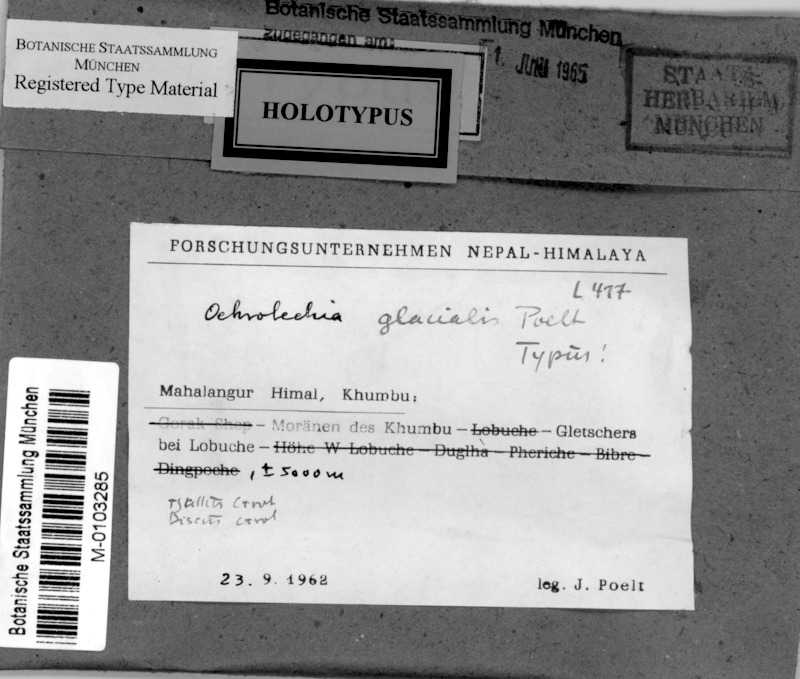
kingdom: Fungi
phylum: Ascomycota
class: Lecanoromycetes
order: Pertusariales
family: Ochrolechiaceae
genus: Ochrolechia
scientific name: Ochrolechia
